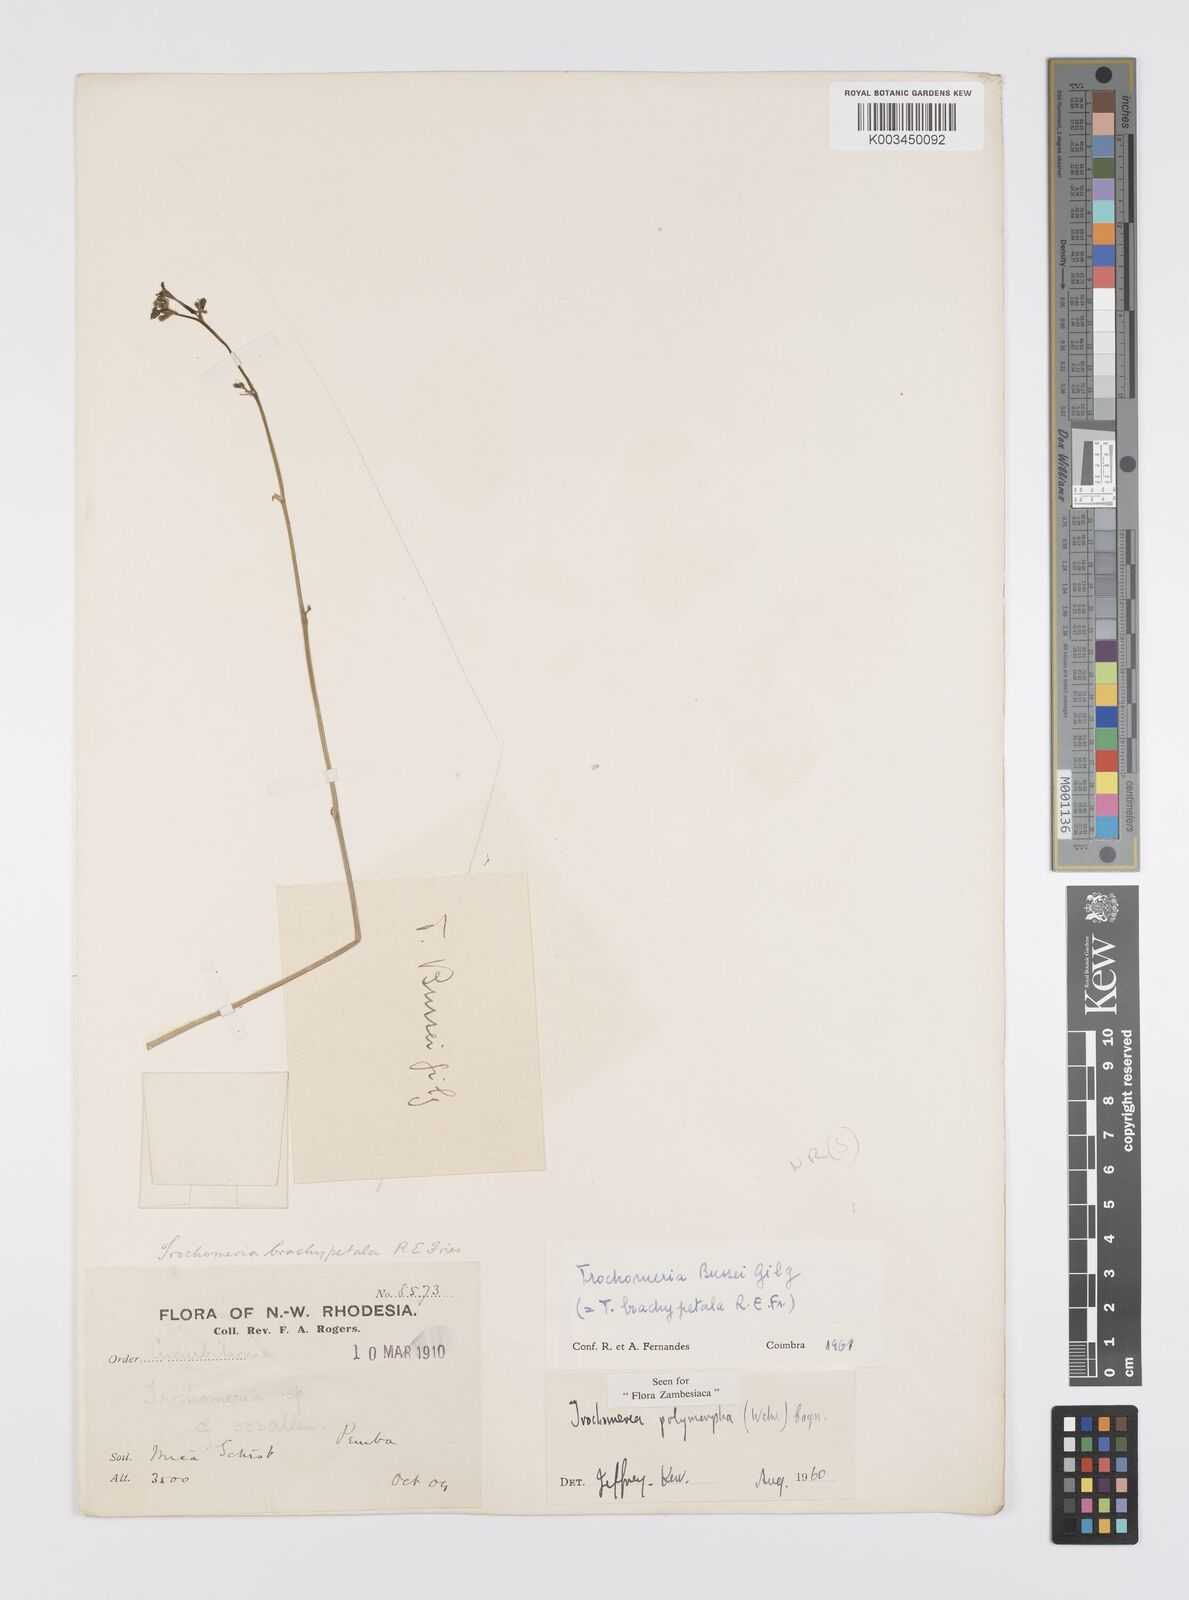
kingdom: Plantae
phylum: Tracheophyta
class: Magnoliopsida
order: Cucurbitales
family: Cucurbitaceae
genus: Trochomeria
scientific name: Trochomeria polymorpha
